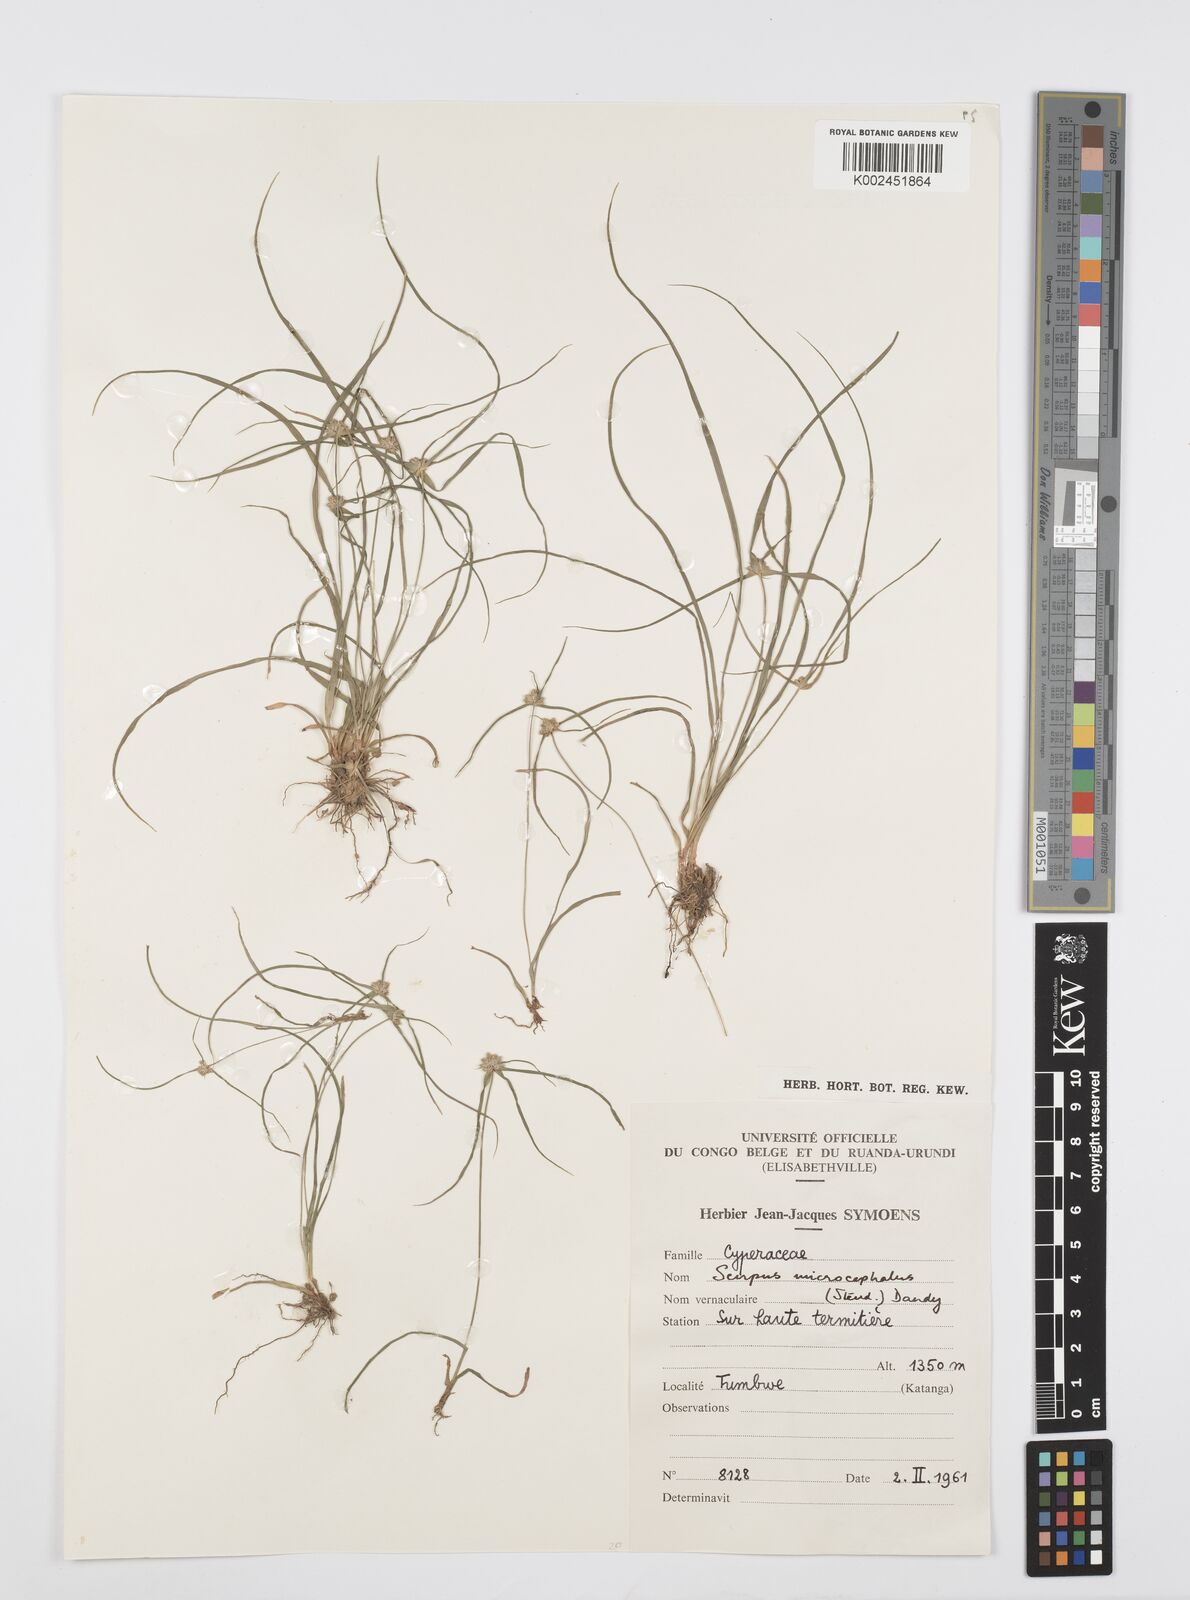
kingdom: Plantae
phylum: Tracheophyta
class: Liliopsida
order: Poales
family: Cyperaceae
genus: Cyperus
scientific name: Cyperus microcephalus
